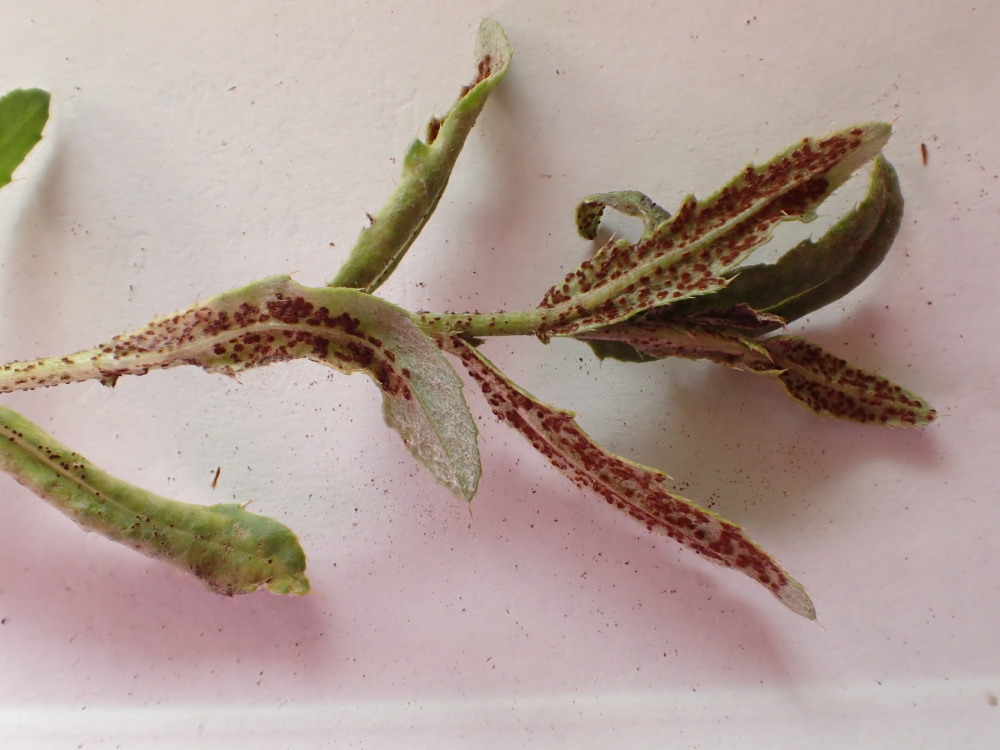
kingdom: Fungi
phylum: Basidiomycota
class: Pucciniomycetes
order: Pucciniales
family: Pucciniaceae
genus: Puccinia
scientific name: Puccinia suaveolens
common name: tidsel-tvecellerust
